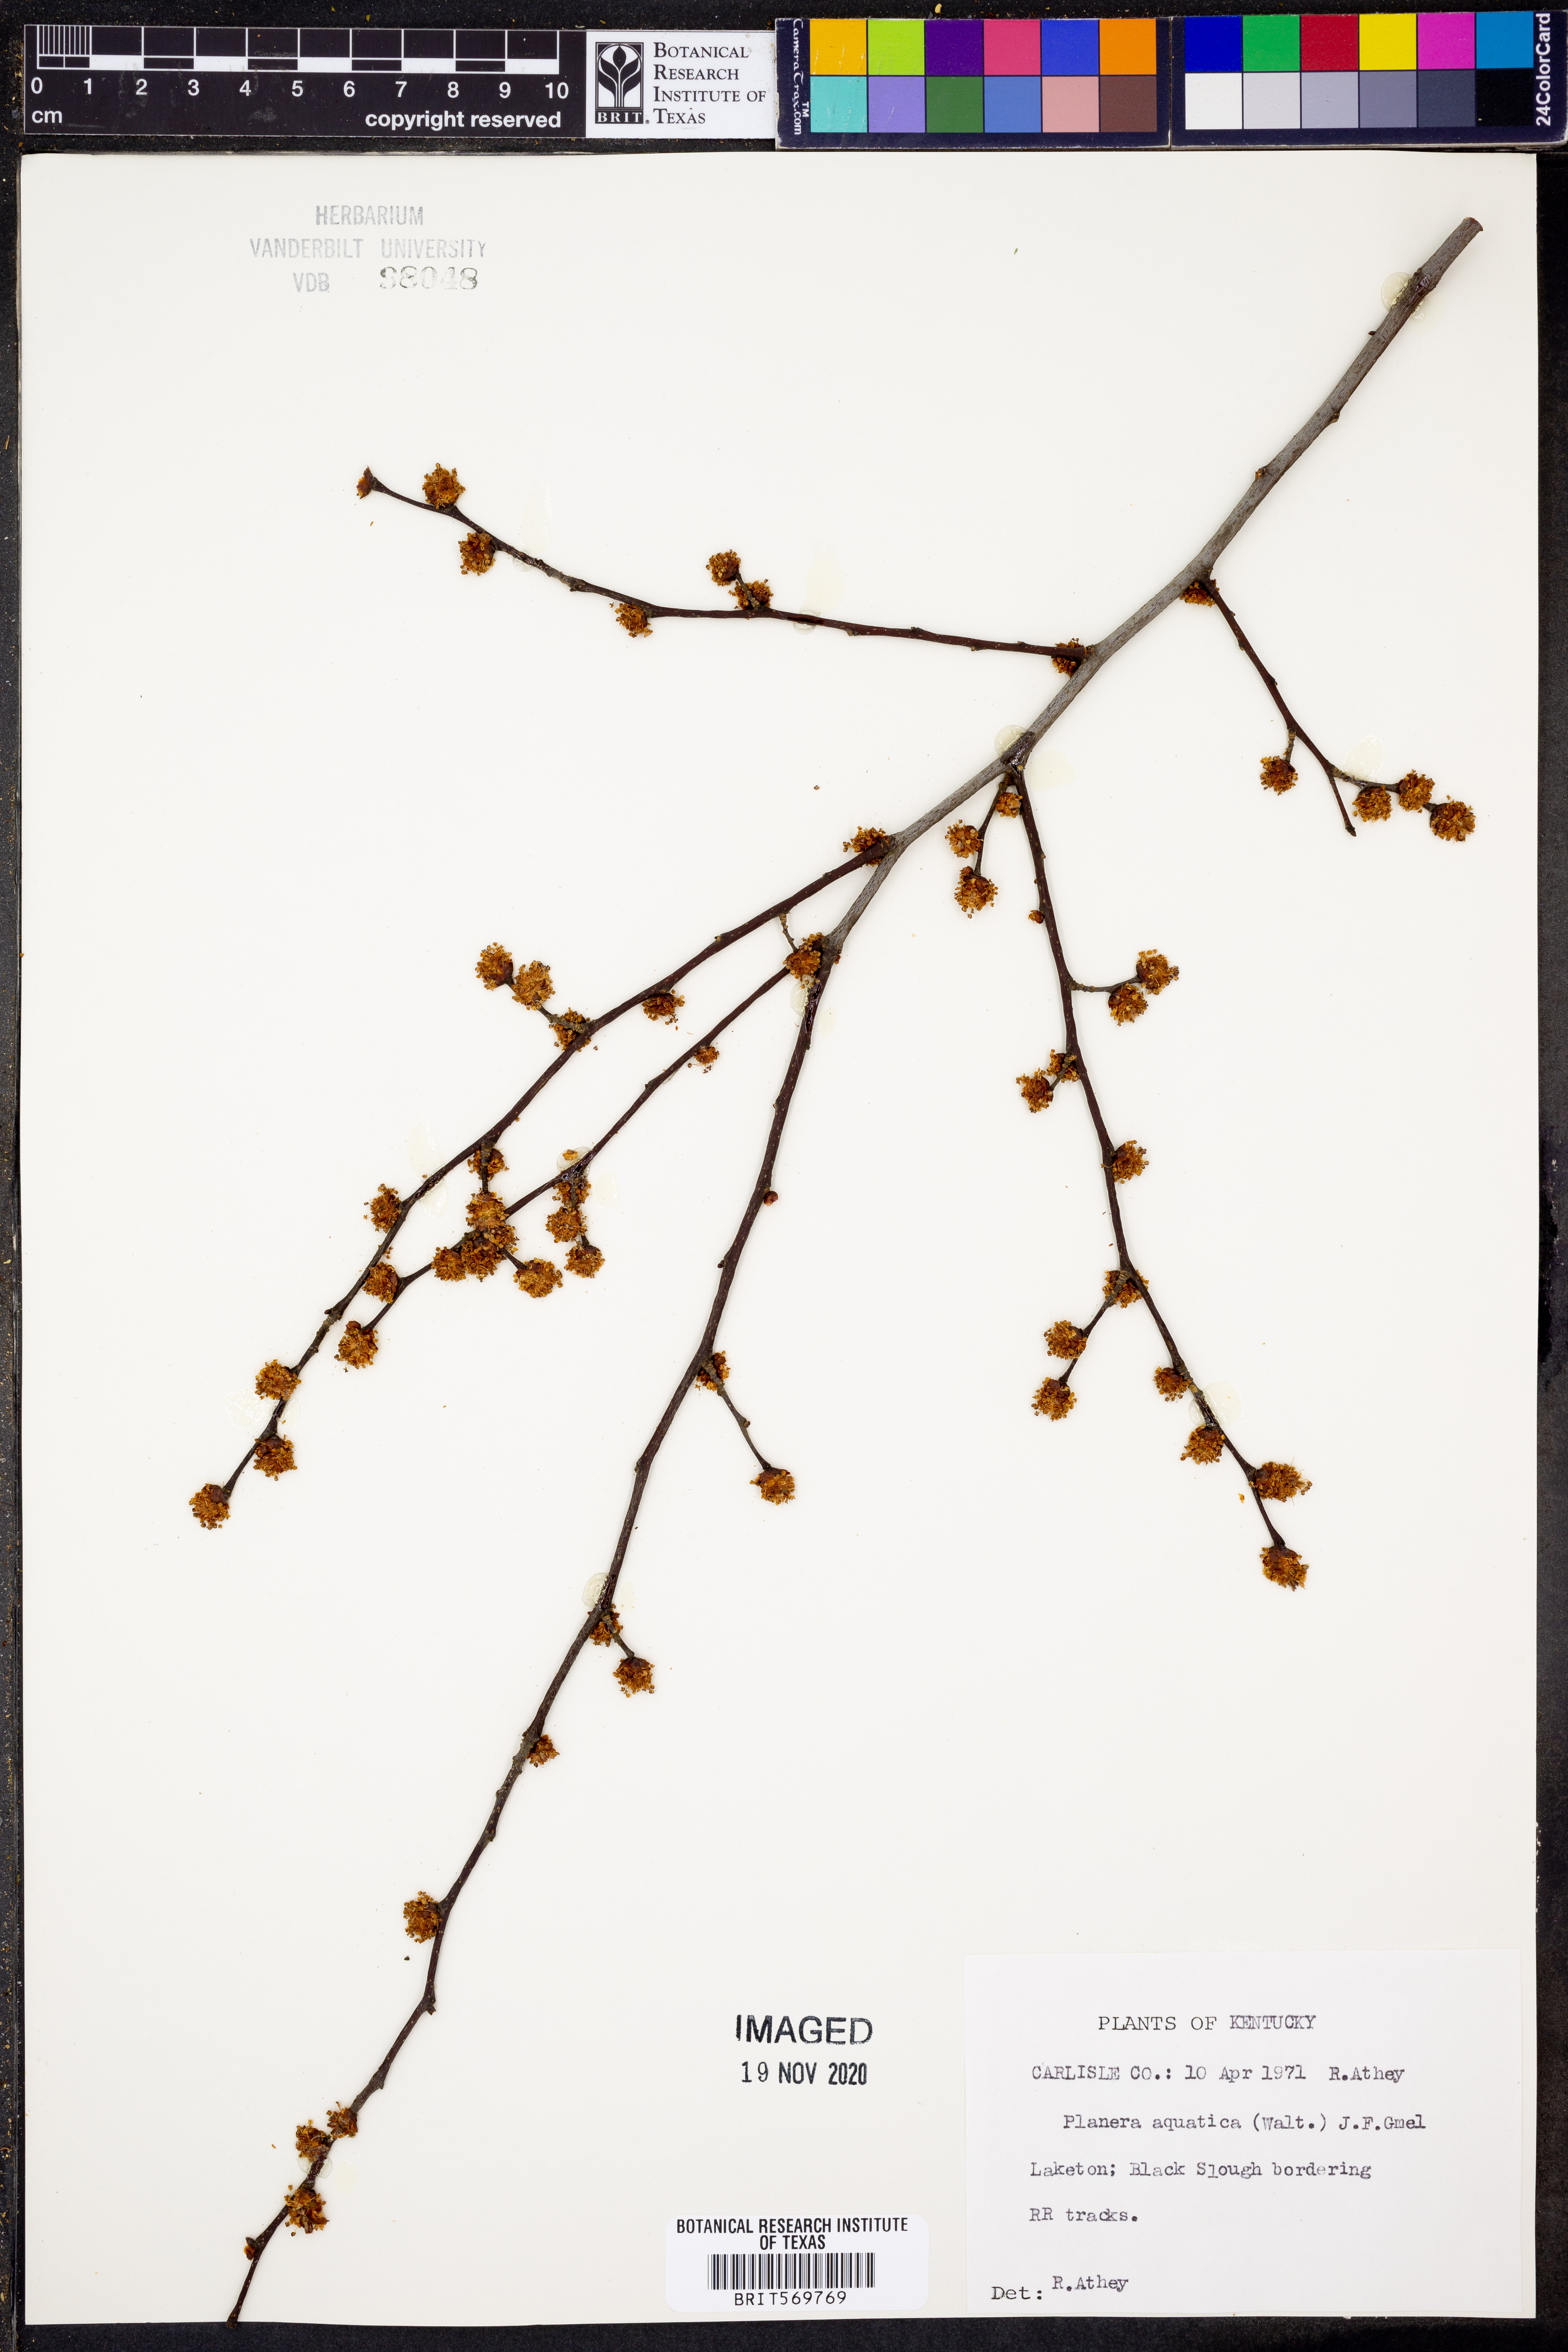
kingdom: Plantae
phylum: Tracheophyta
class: Magnoliopsida
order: Rosales
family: Ulmaceae
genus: Planera
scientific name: Planera aquatica
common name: Water-elm
